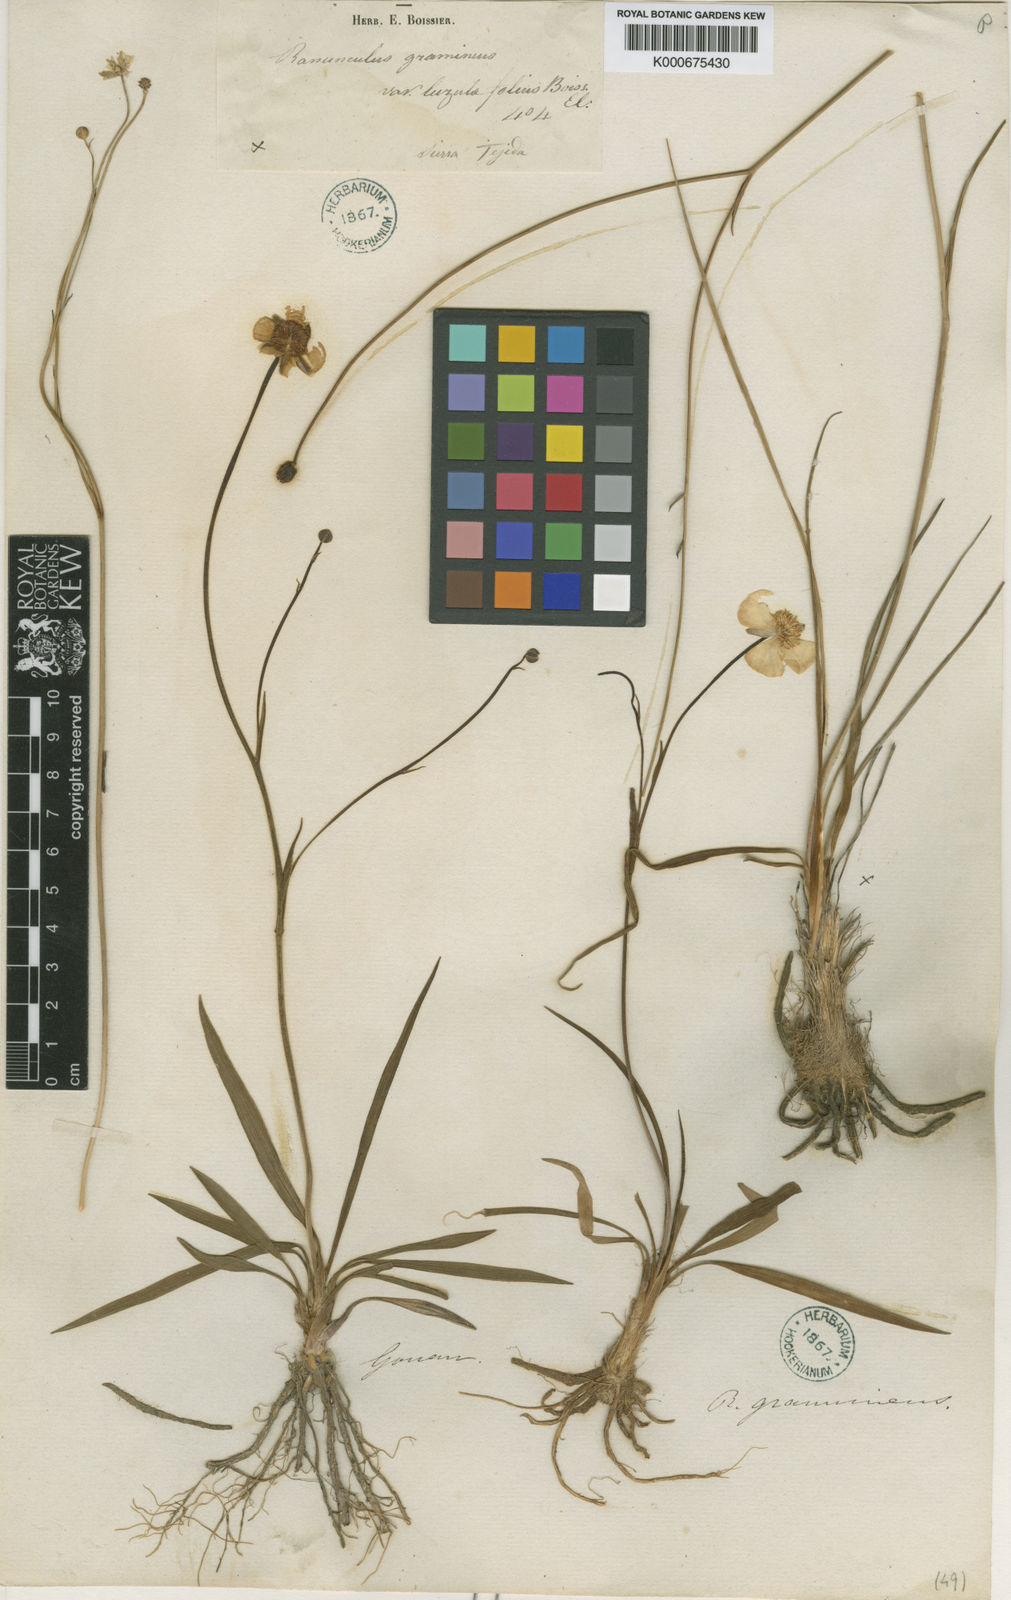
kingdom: Plantae
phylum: Tracheophyta
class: Magnoliopsida
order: Ranunculales
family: Ranunculaceae
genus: Ranunculus
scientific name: Ranunculus gramineus
